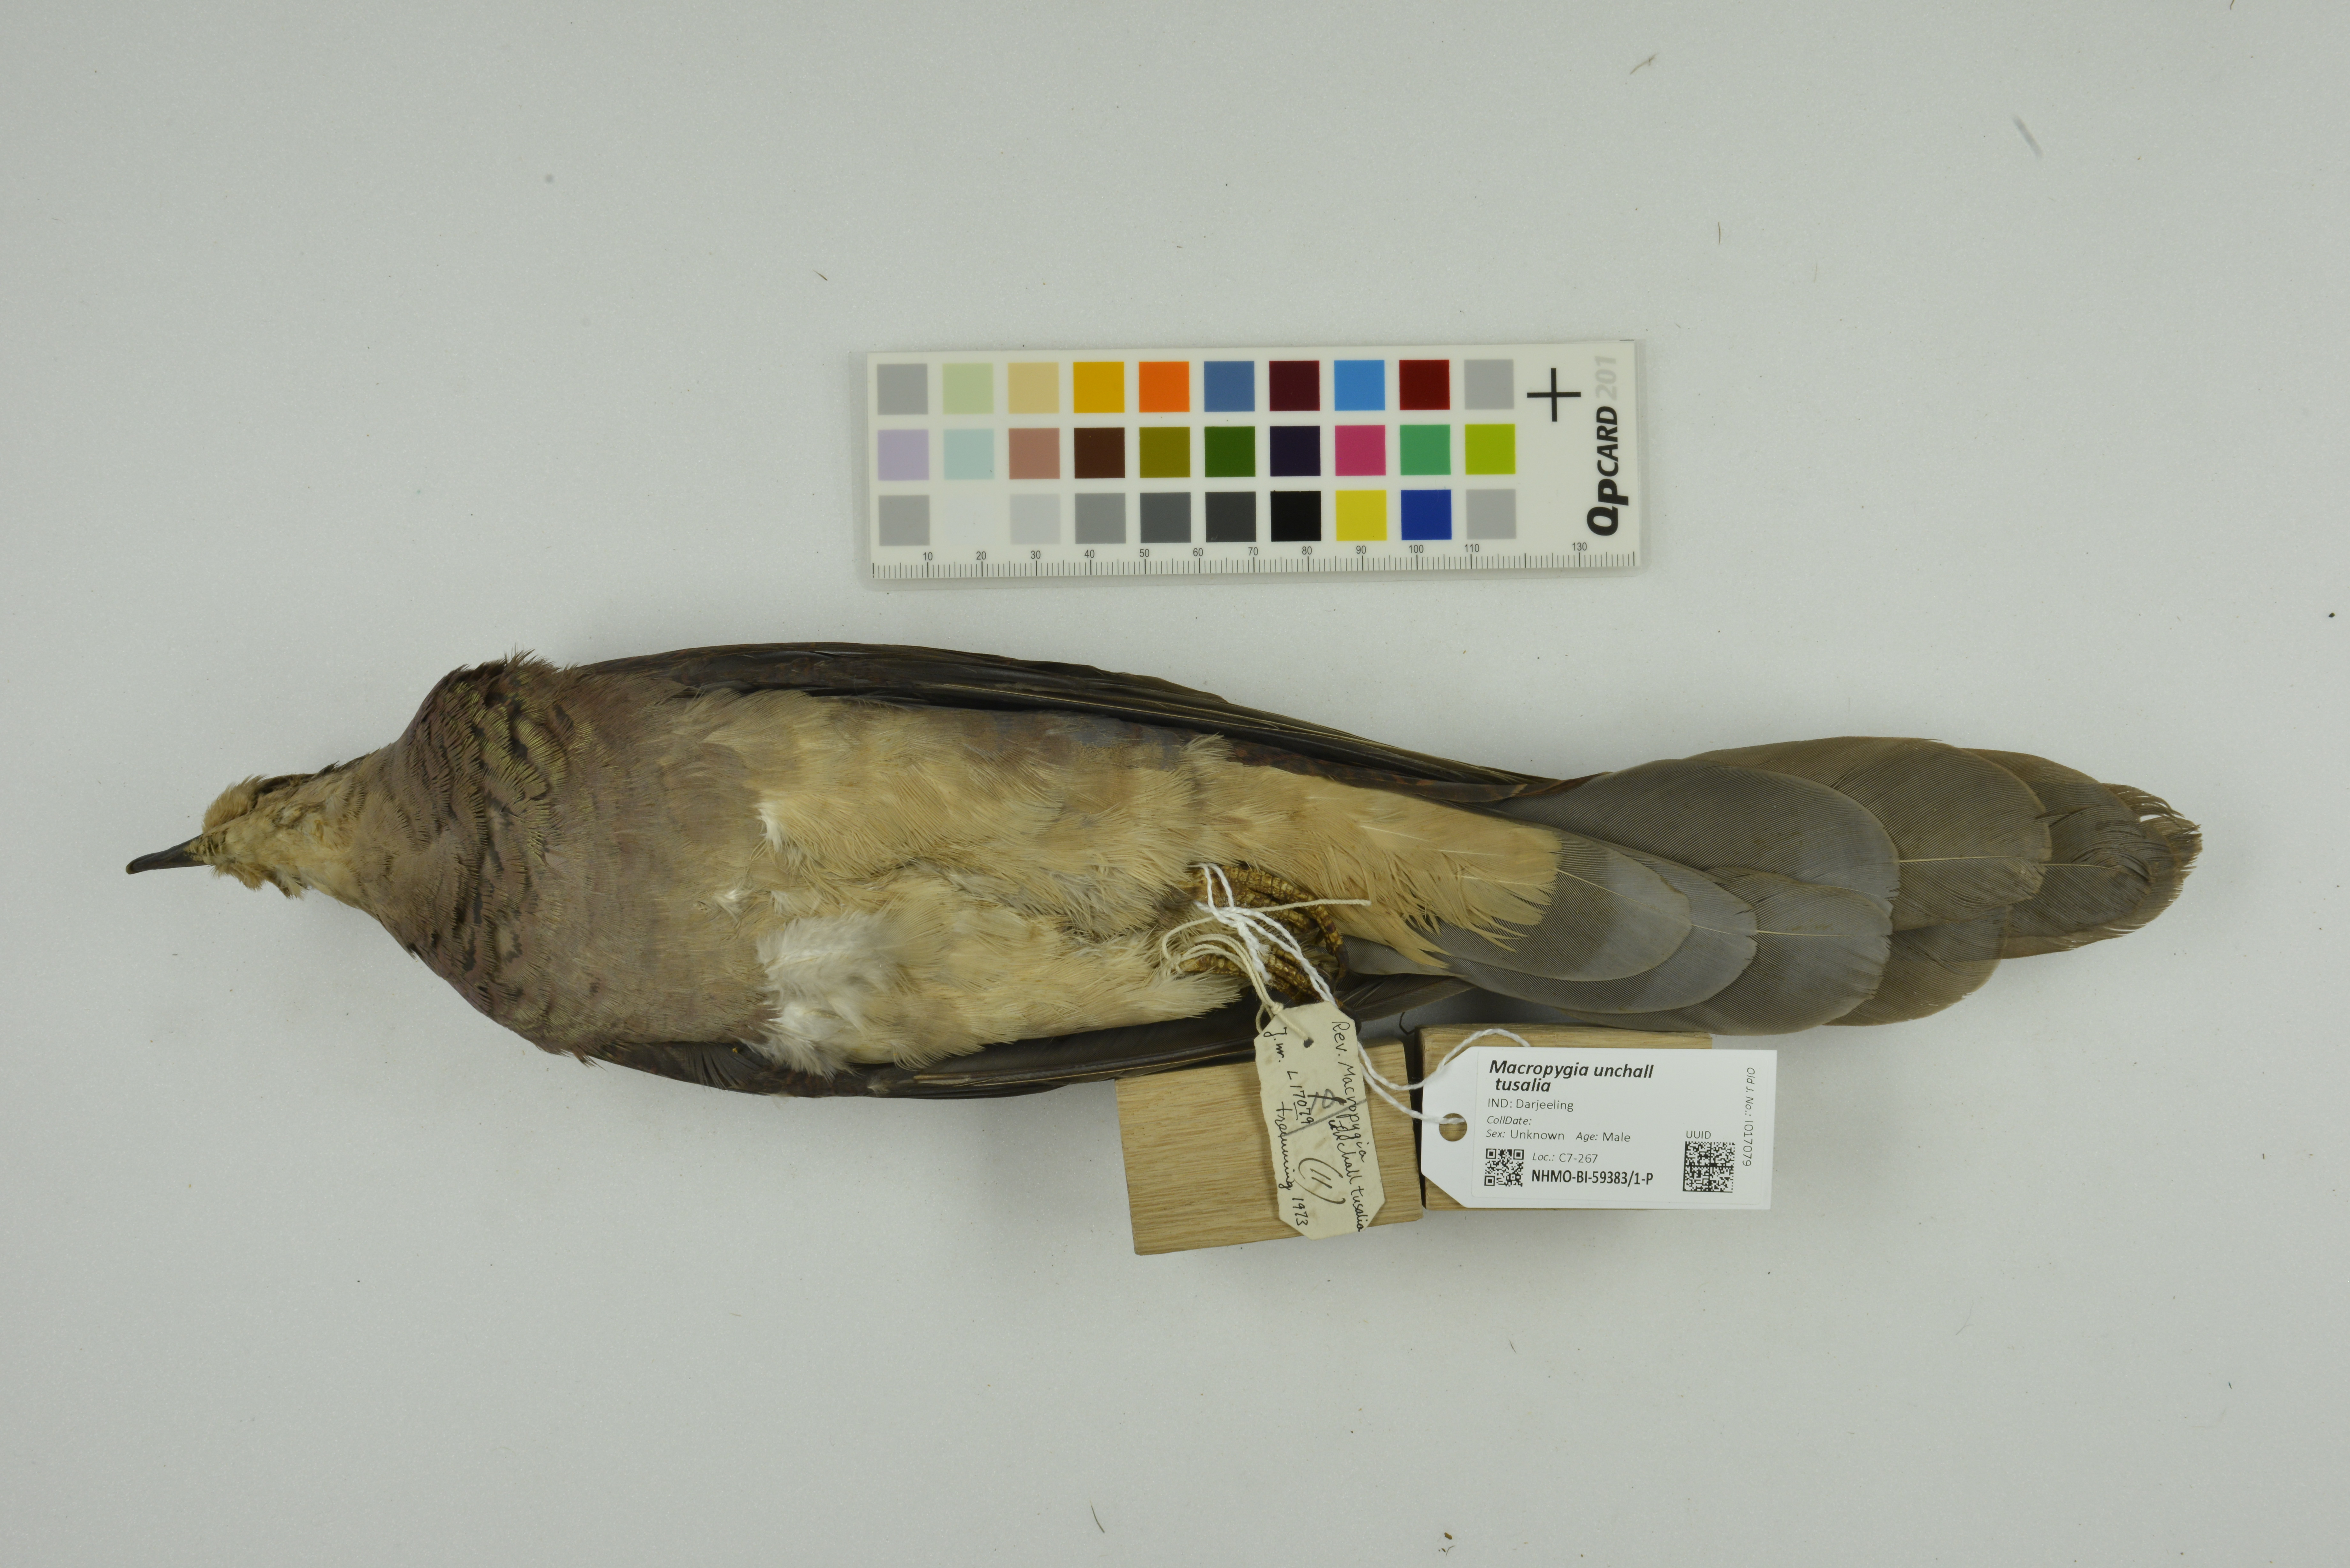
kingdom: Animalia
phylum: Chordata
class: Aves
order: Columbiformes
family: Columbidae
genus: Macropygia
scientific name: Macropygia unchall
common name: Barred cuckoo-dove
